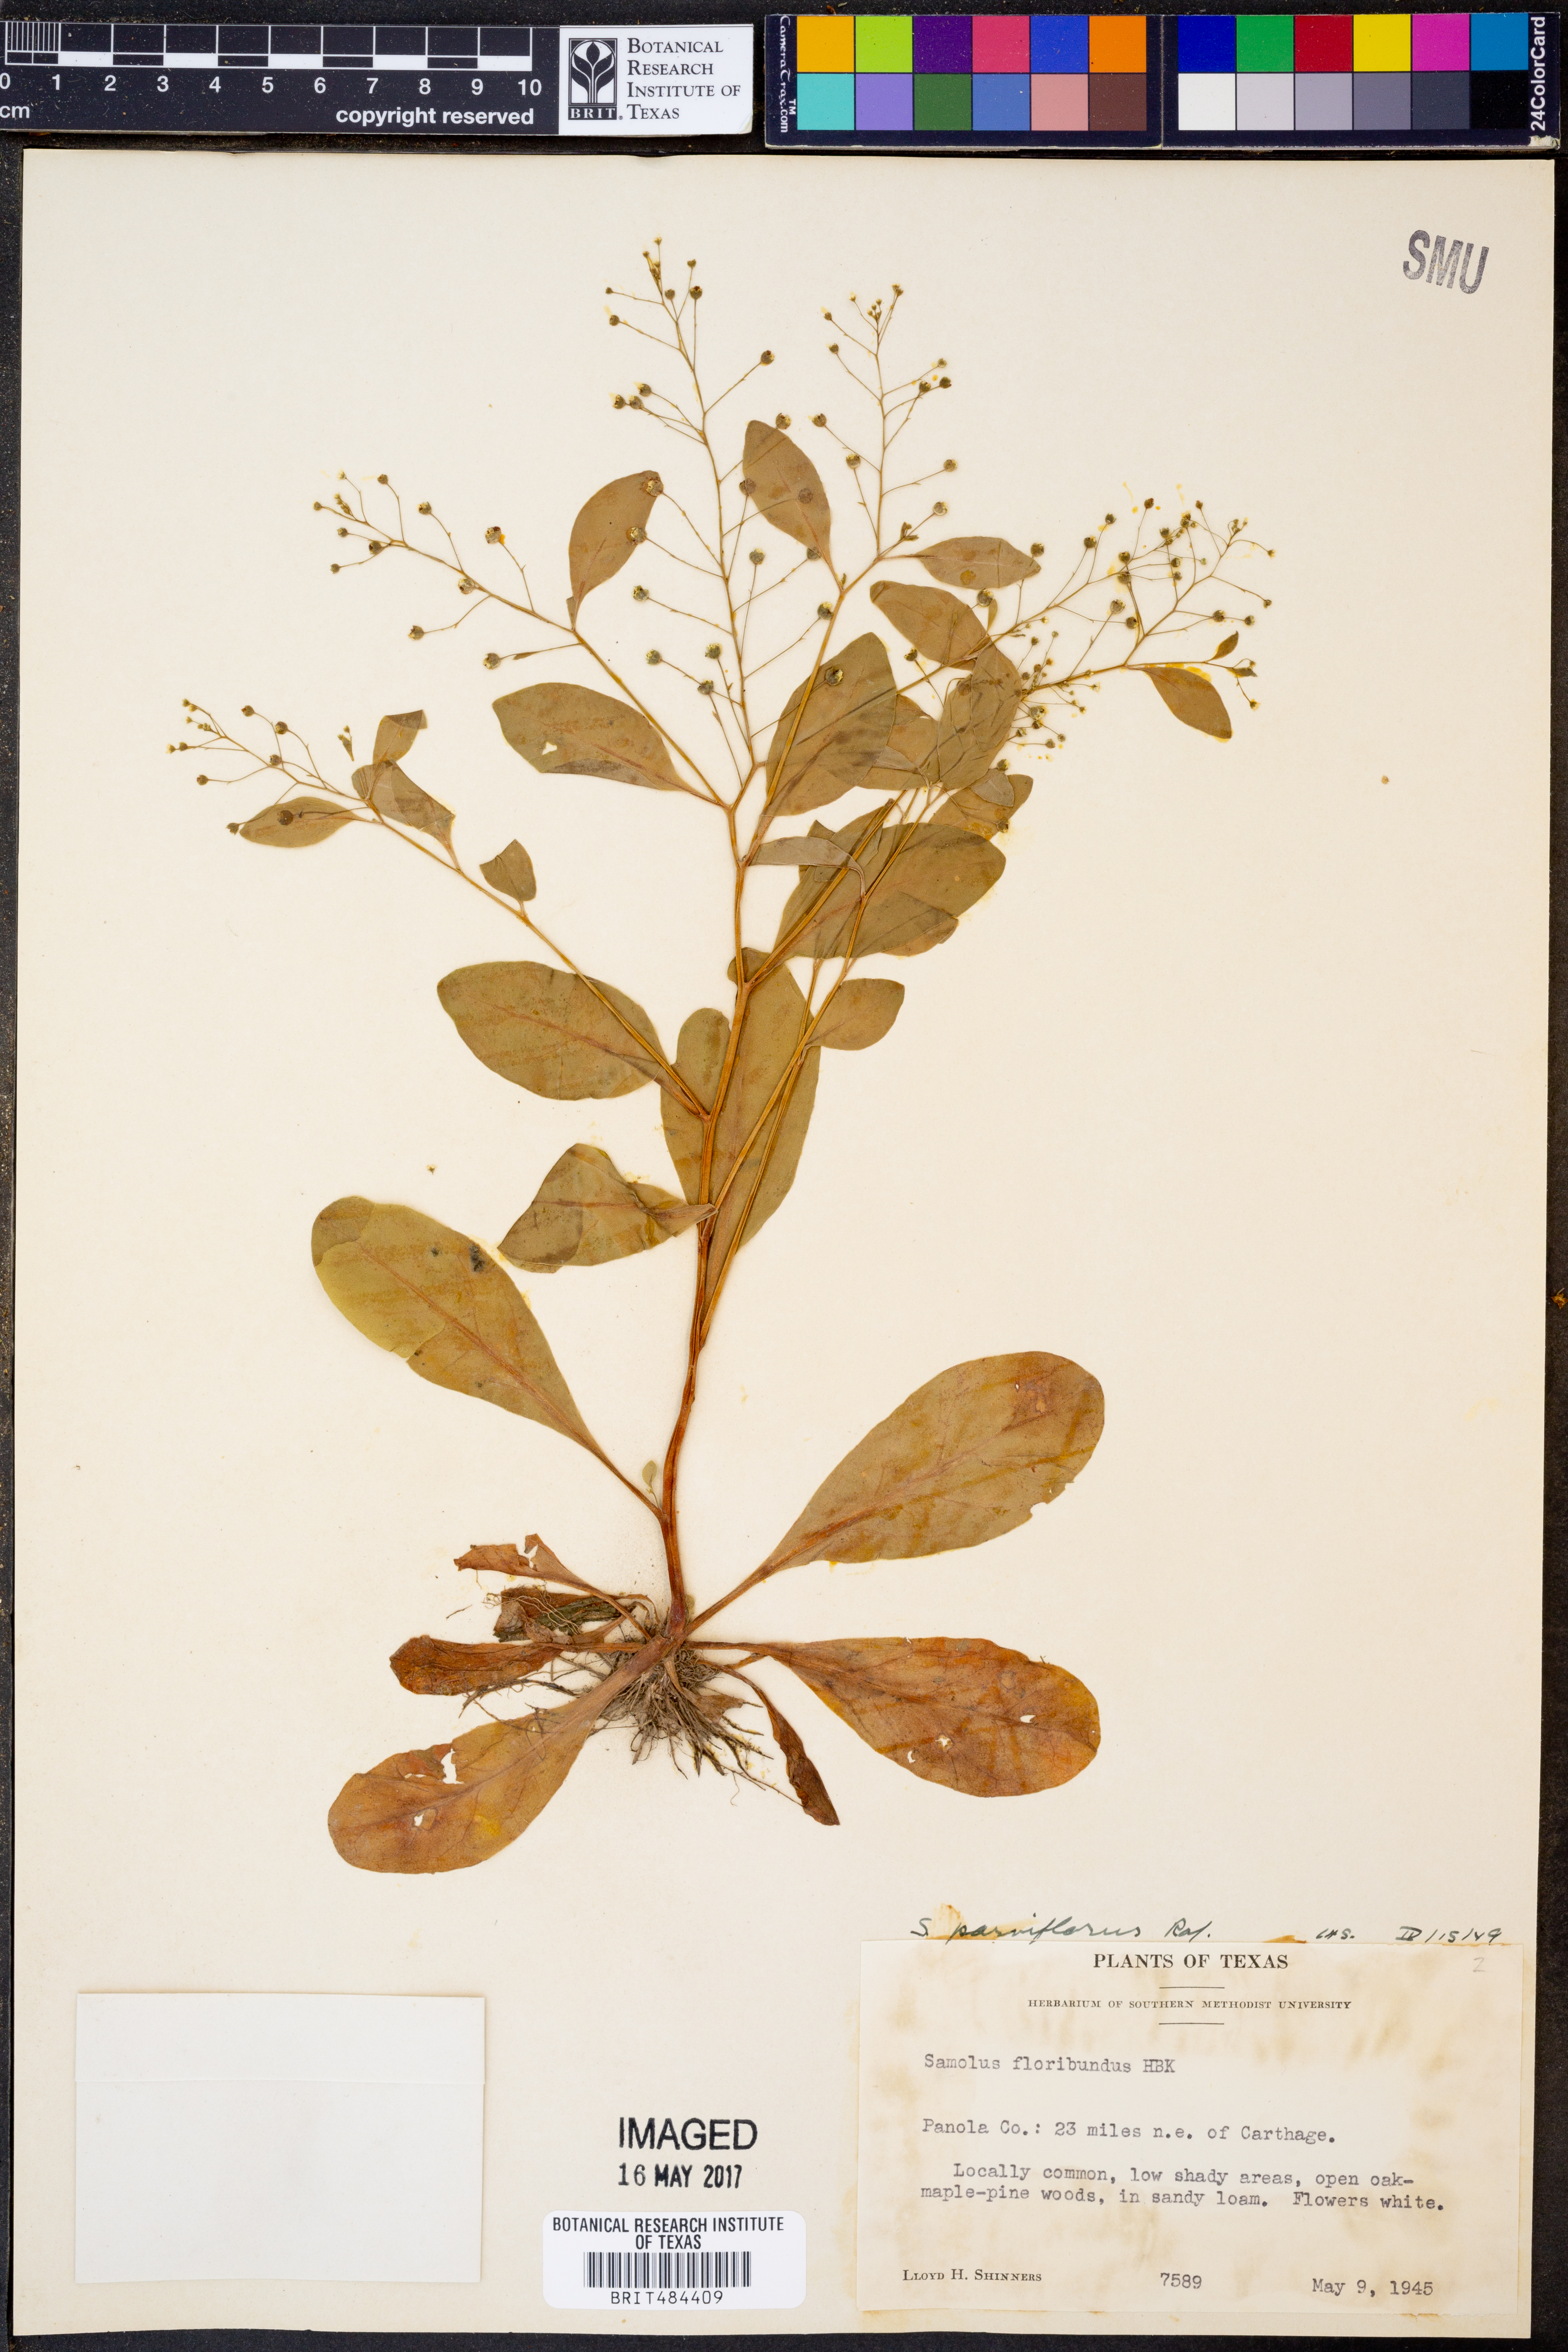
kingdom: Plantae
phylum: Tracheophyta
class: Magnoliopsida
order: Ericales
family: Primulaceae
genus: Samolus
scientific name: Samolus parviflorus
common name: False water pimpernel
